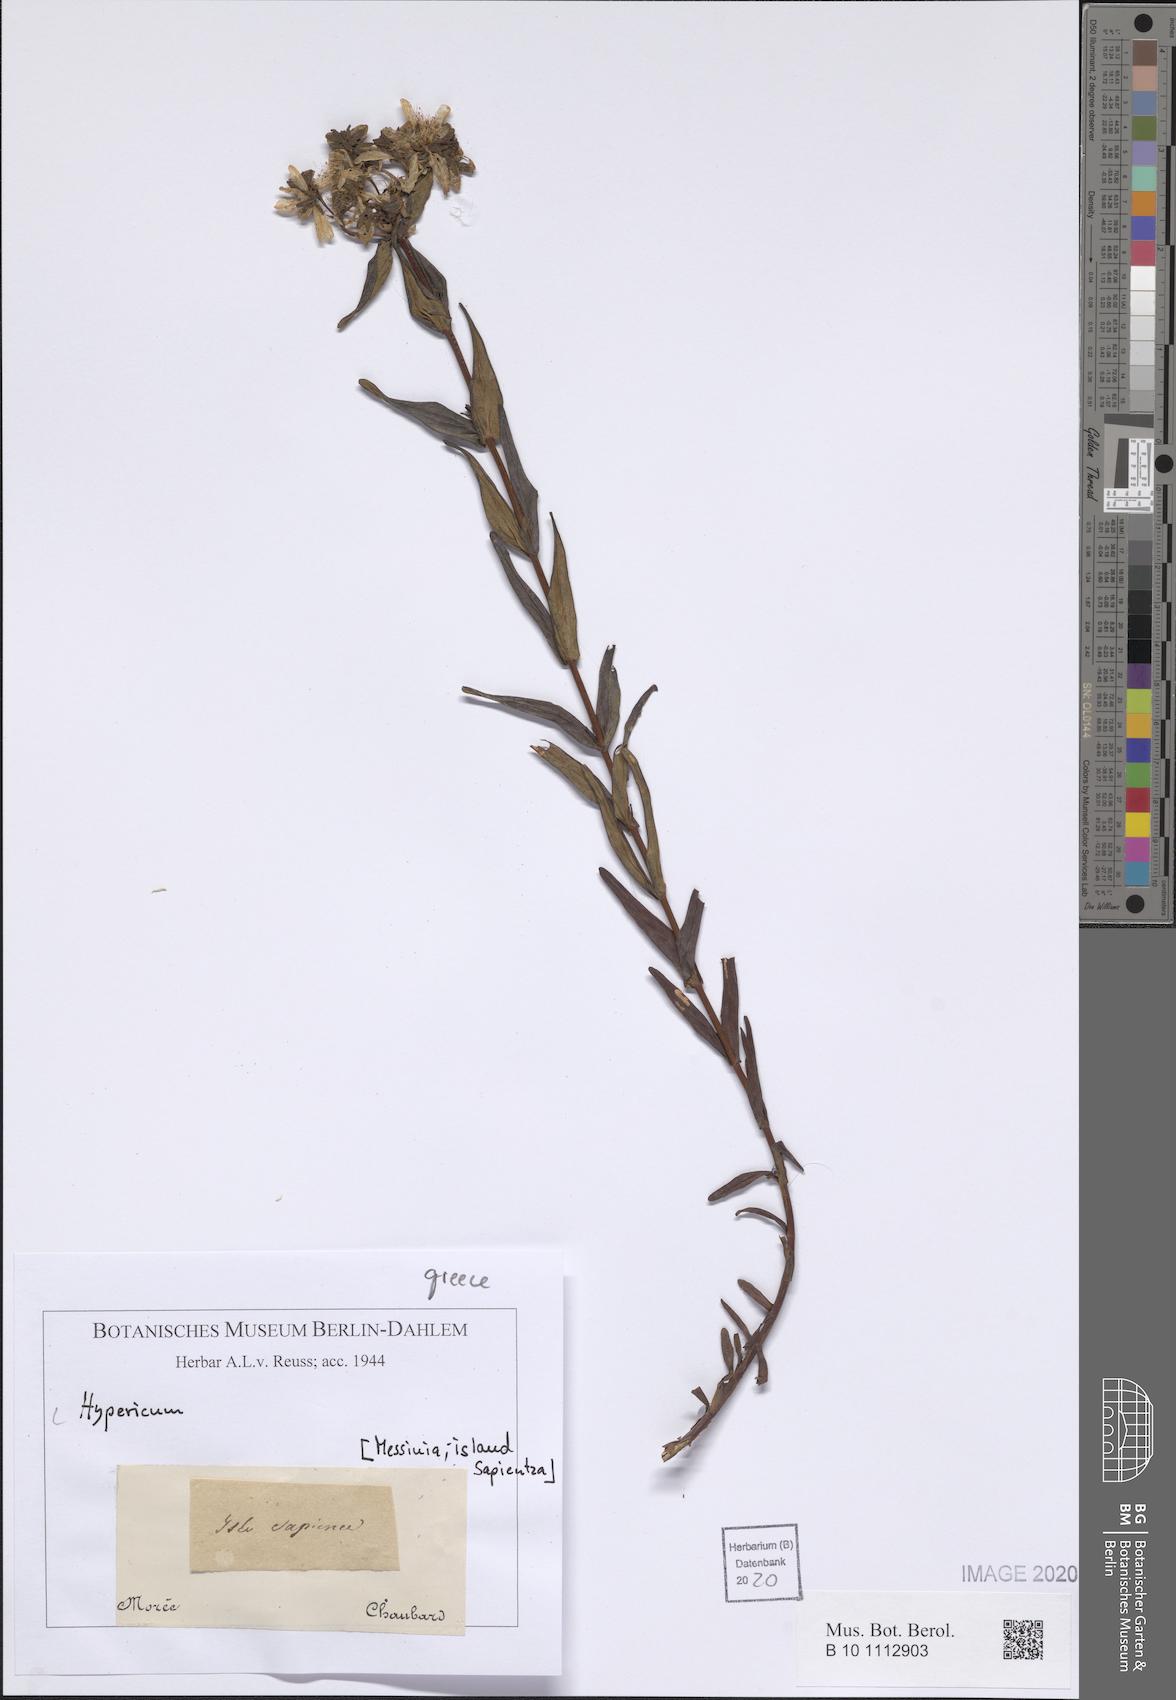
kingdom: Plantae
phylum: Tracheophyta
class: Magnoliopsida
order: Malpighiales
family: Hypericaceae
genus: Hypericum
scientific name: Hypericum
